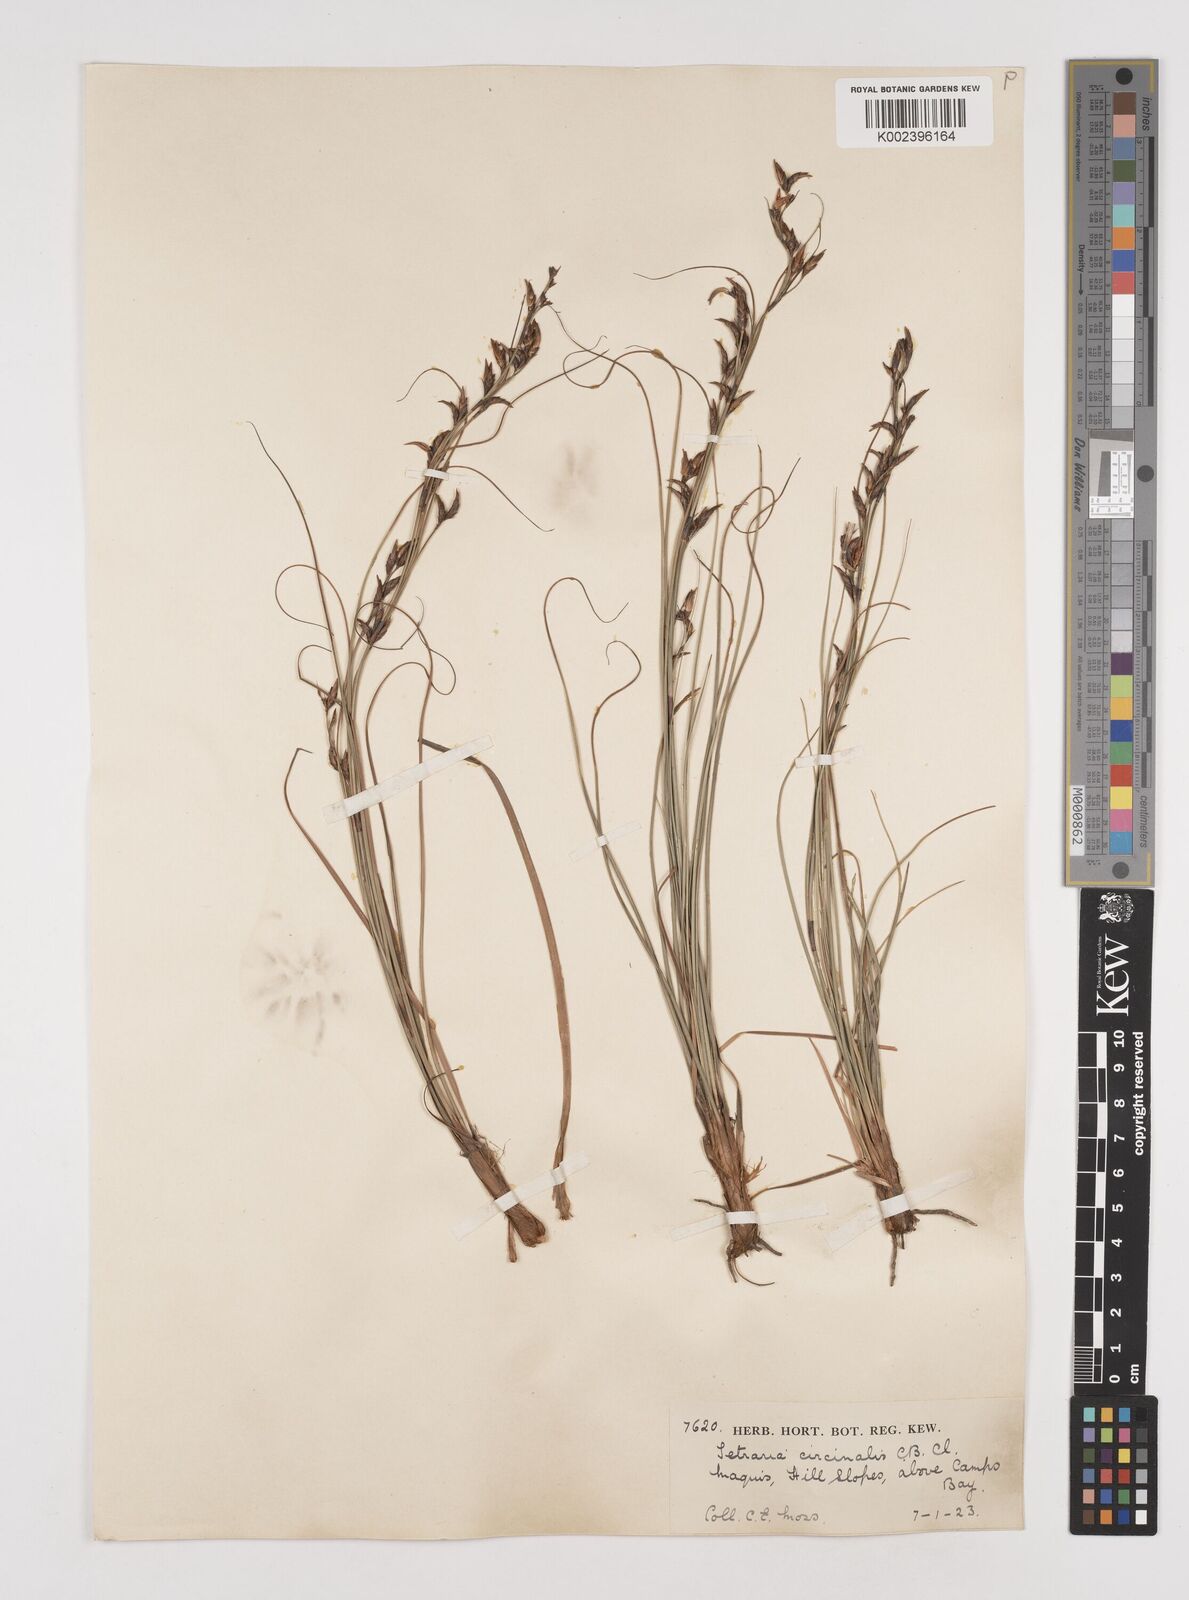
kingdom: Plantae
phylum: Tracheophyta
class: Liliopsida
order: Poales
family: Cyperaceae
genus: Tetraria
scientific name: Tetraria microstachys
